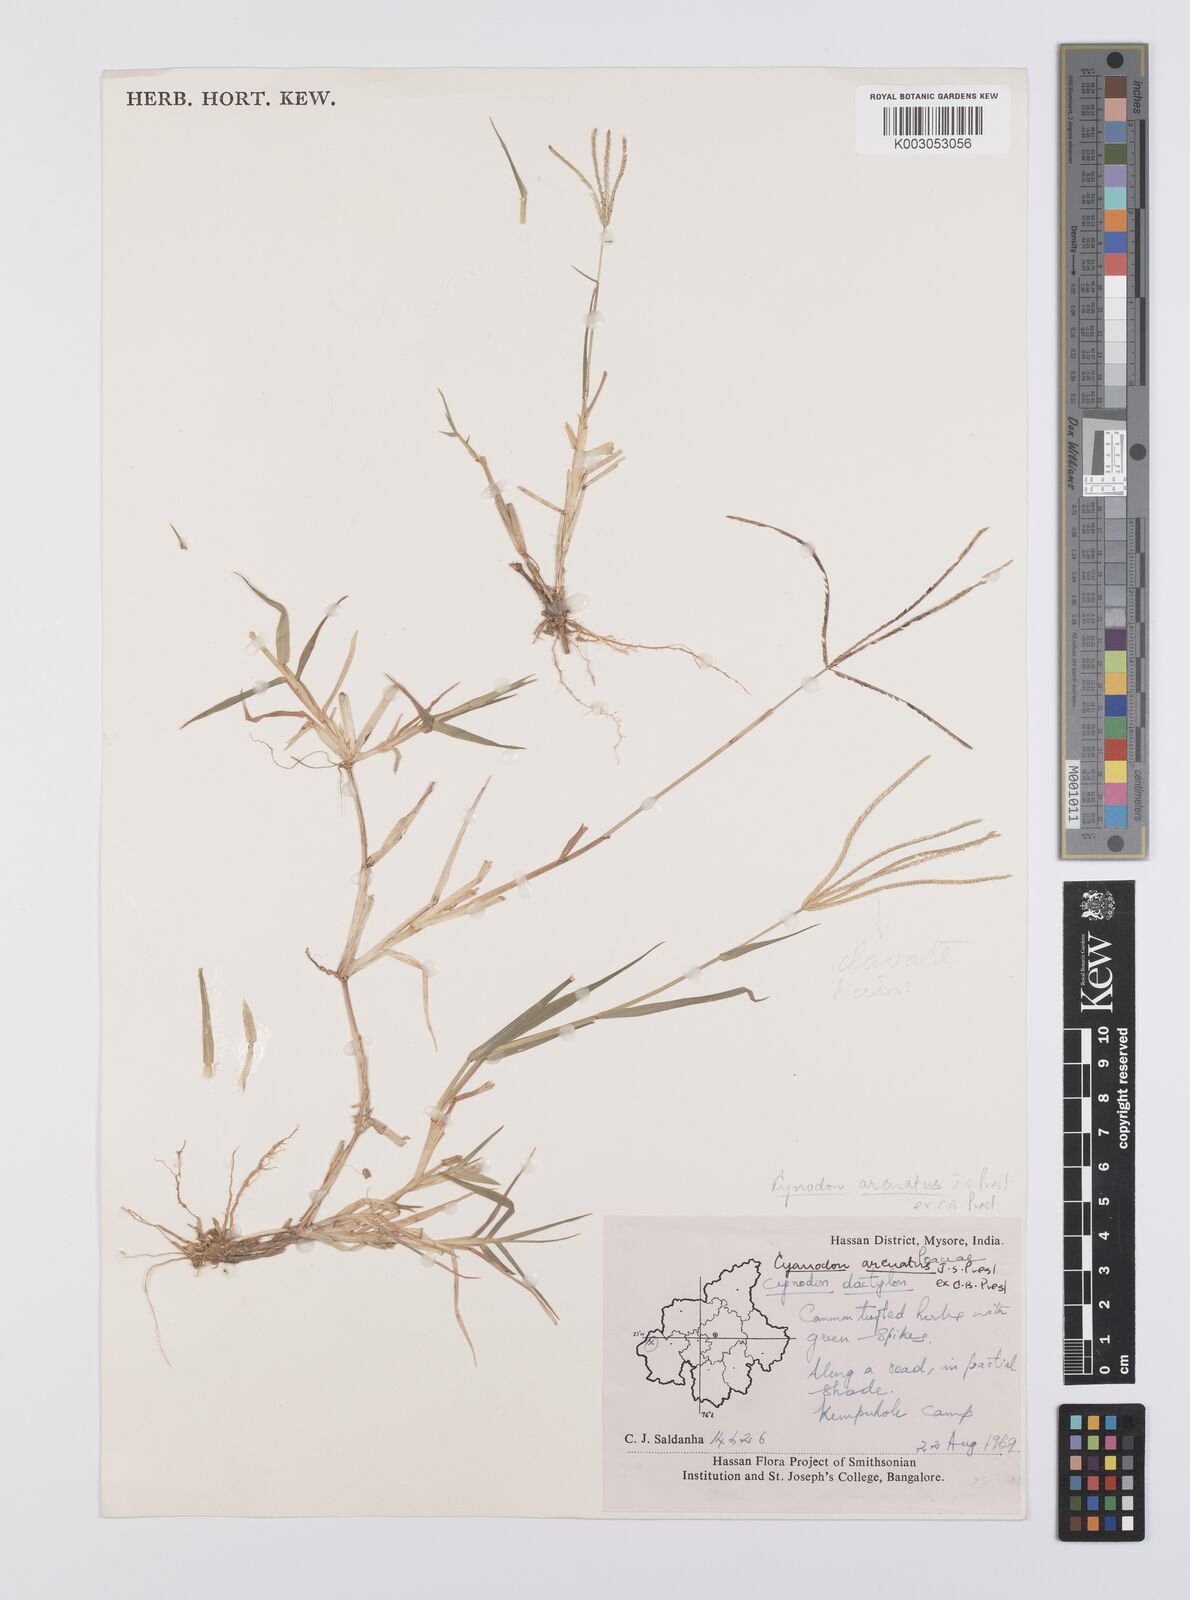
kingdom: Plantae
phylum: Tracheophyta
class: Liliopsida
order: Poales
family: Poaceae
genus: Cynodon
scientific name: Cynodon radiatus
